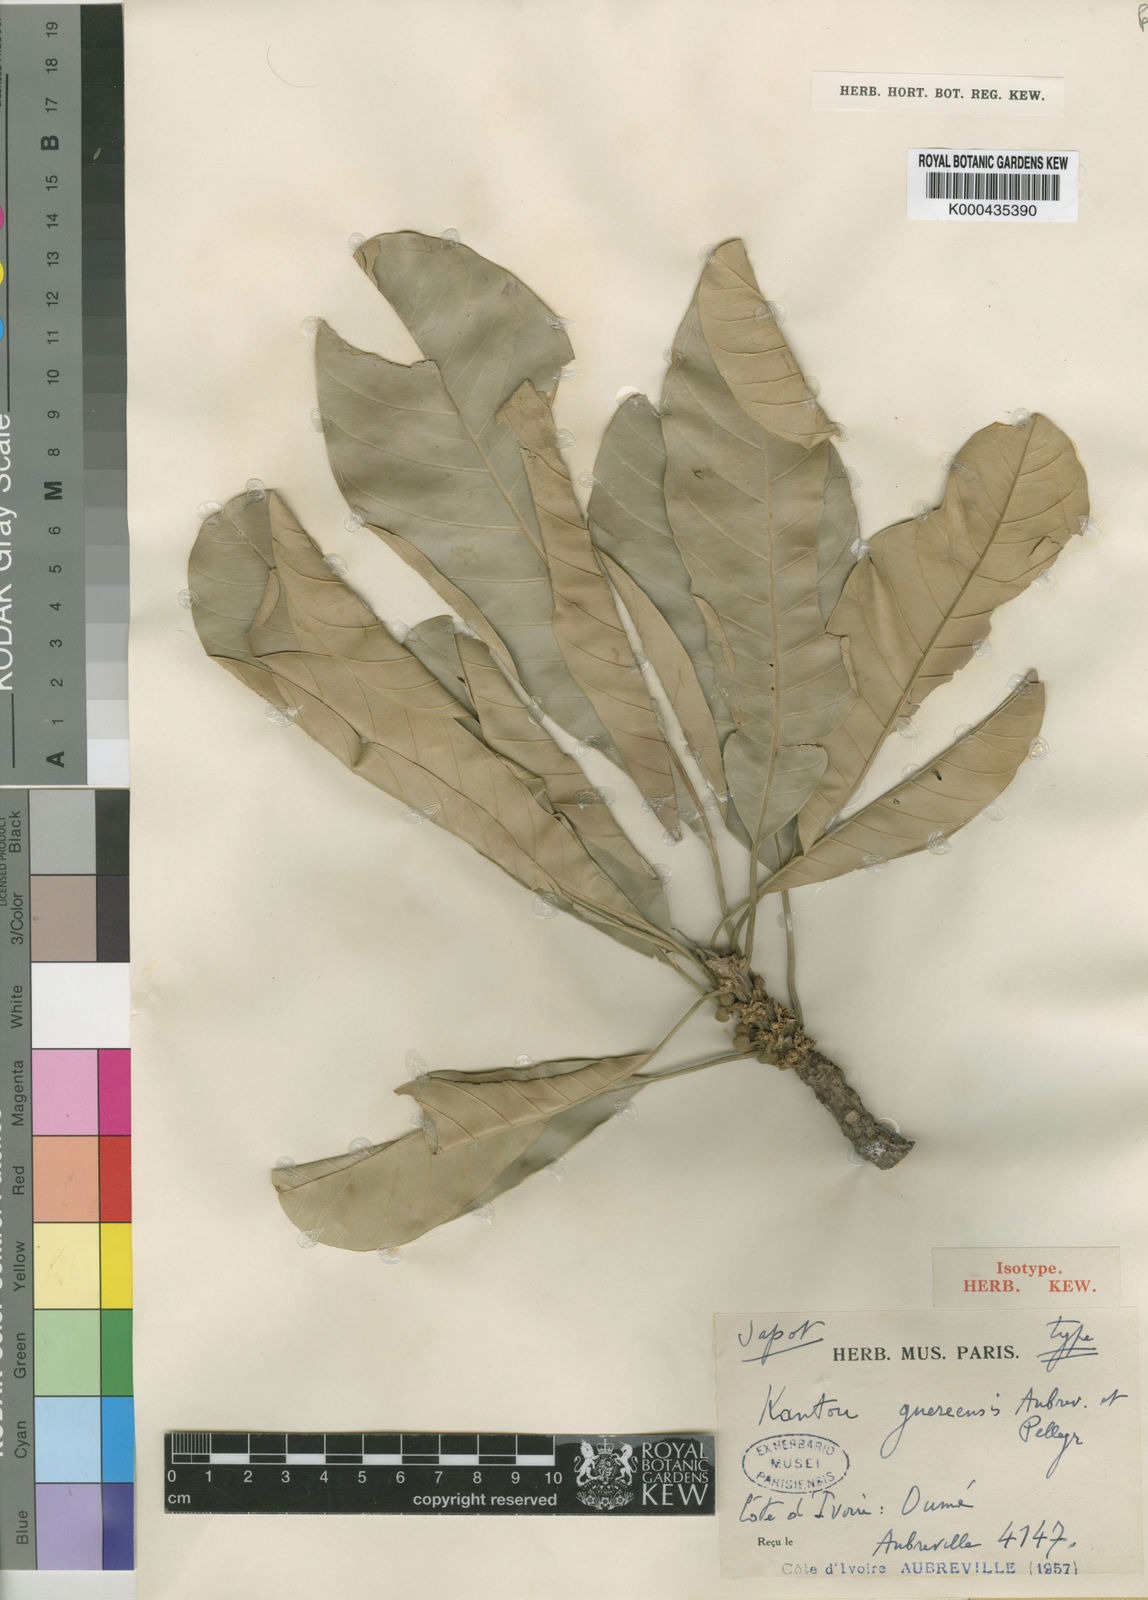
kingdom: Plantae
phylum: Tracheophyta
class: Magnoliopsida
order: Ericales
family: Sapotaceae
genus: Inhambanella
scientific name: Inhambanella
